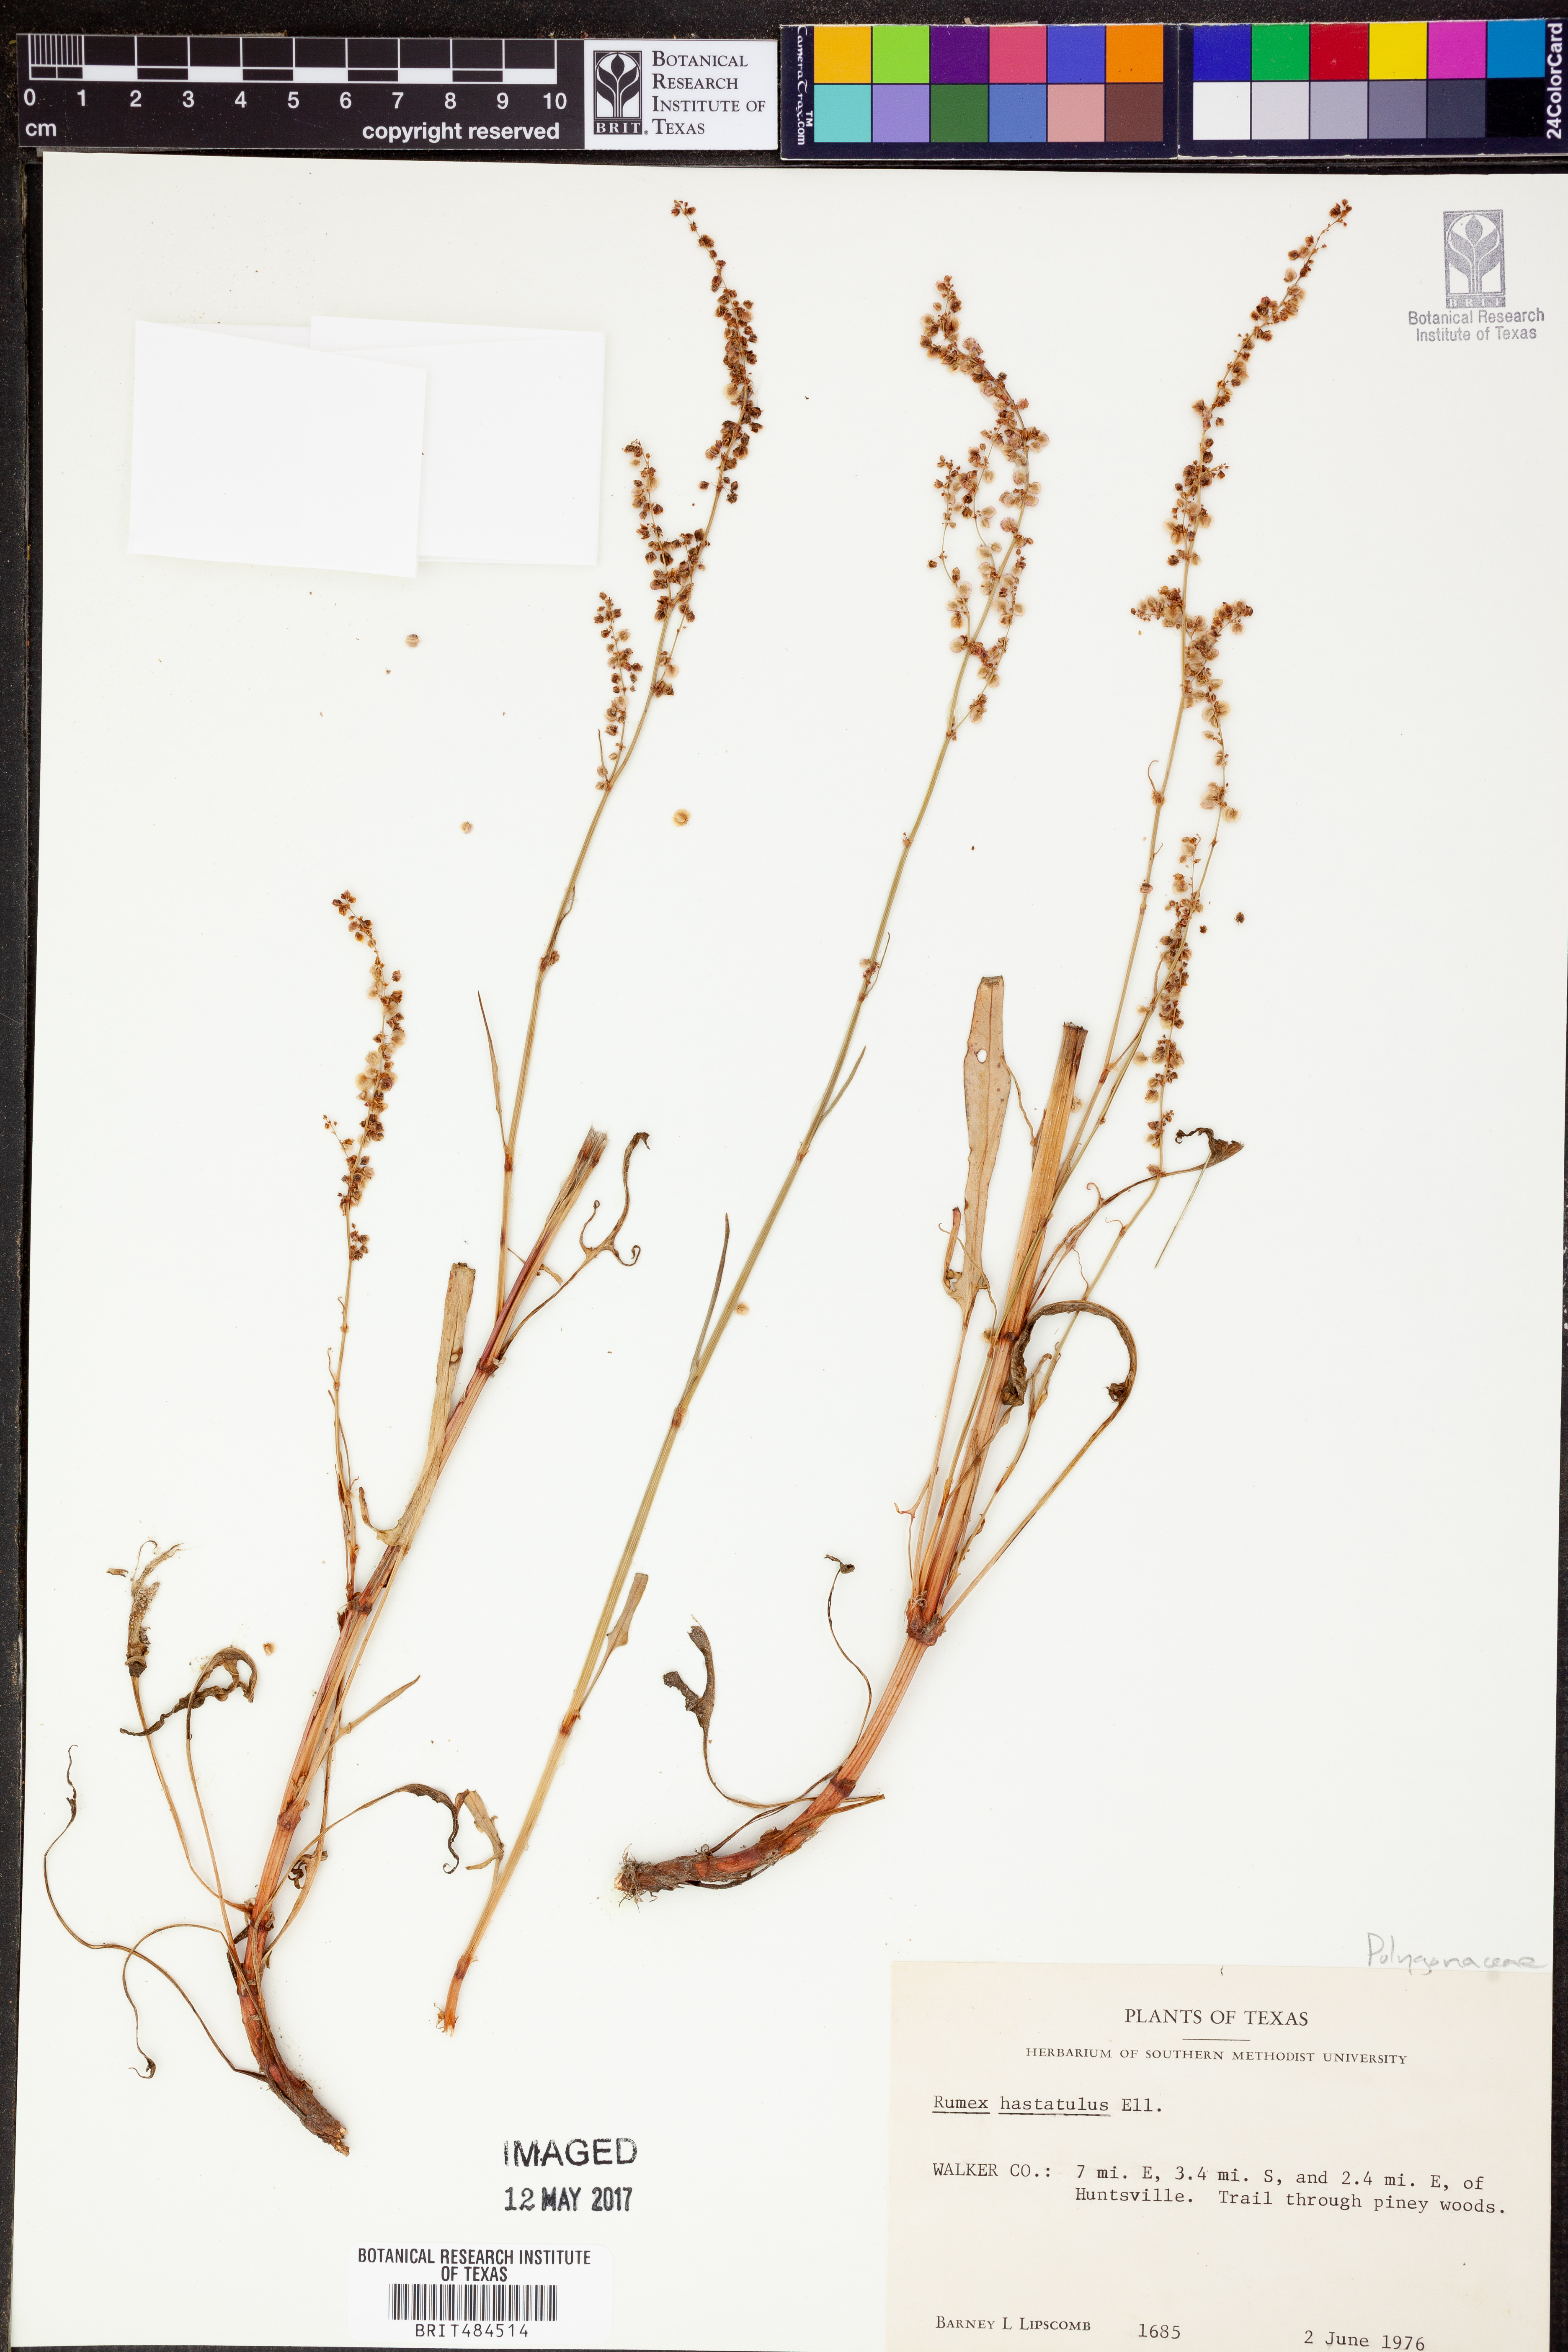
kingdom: Plantae
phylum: Tracheophyta
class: Magnoliopsida
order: Caryophyllales
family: Polygonaceae
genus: Rumex
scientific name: Rumex hastatulus
